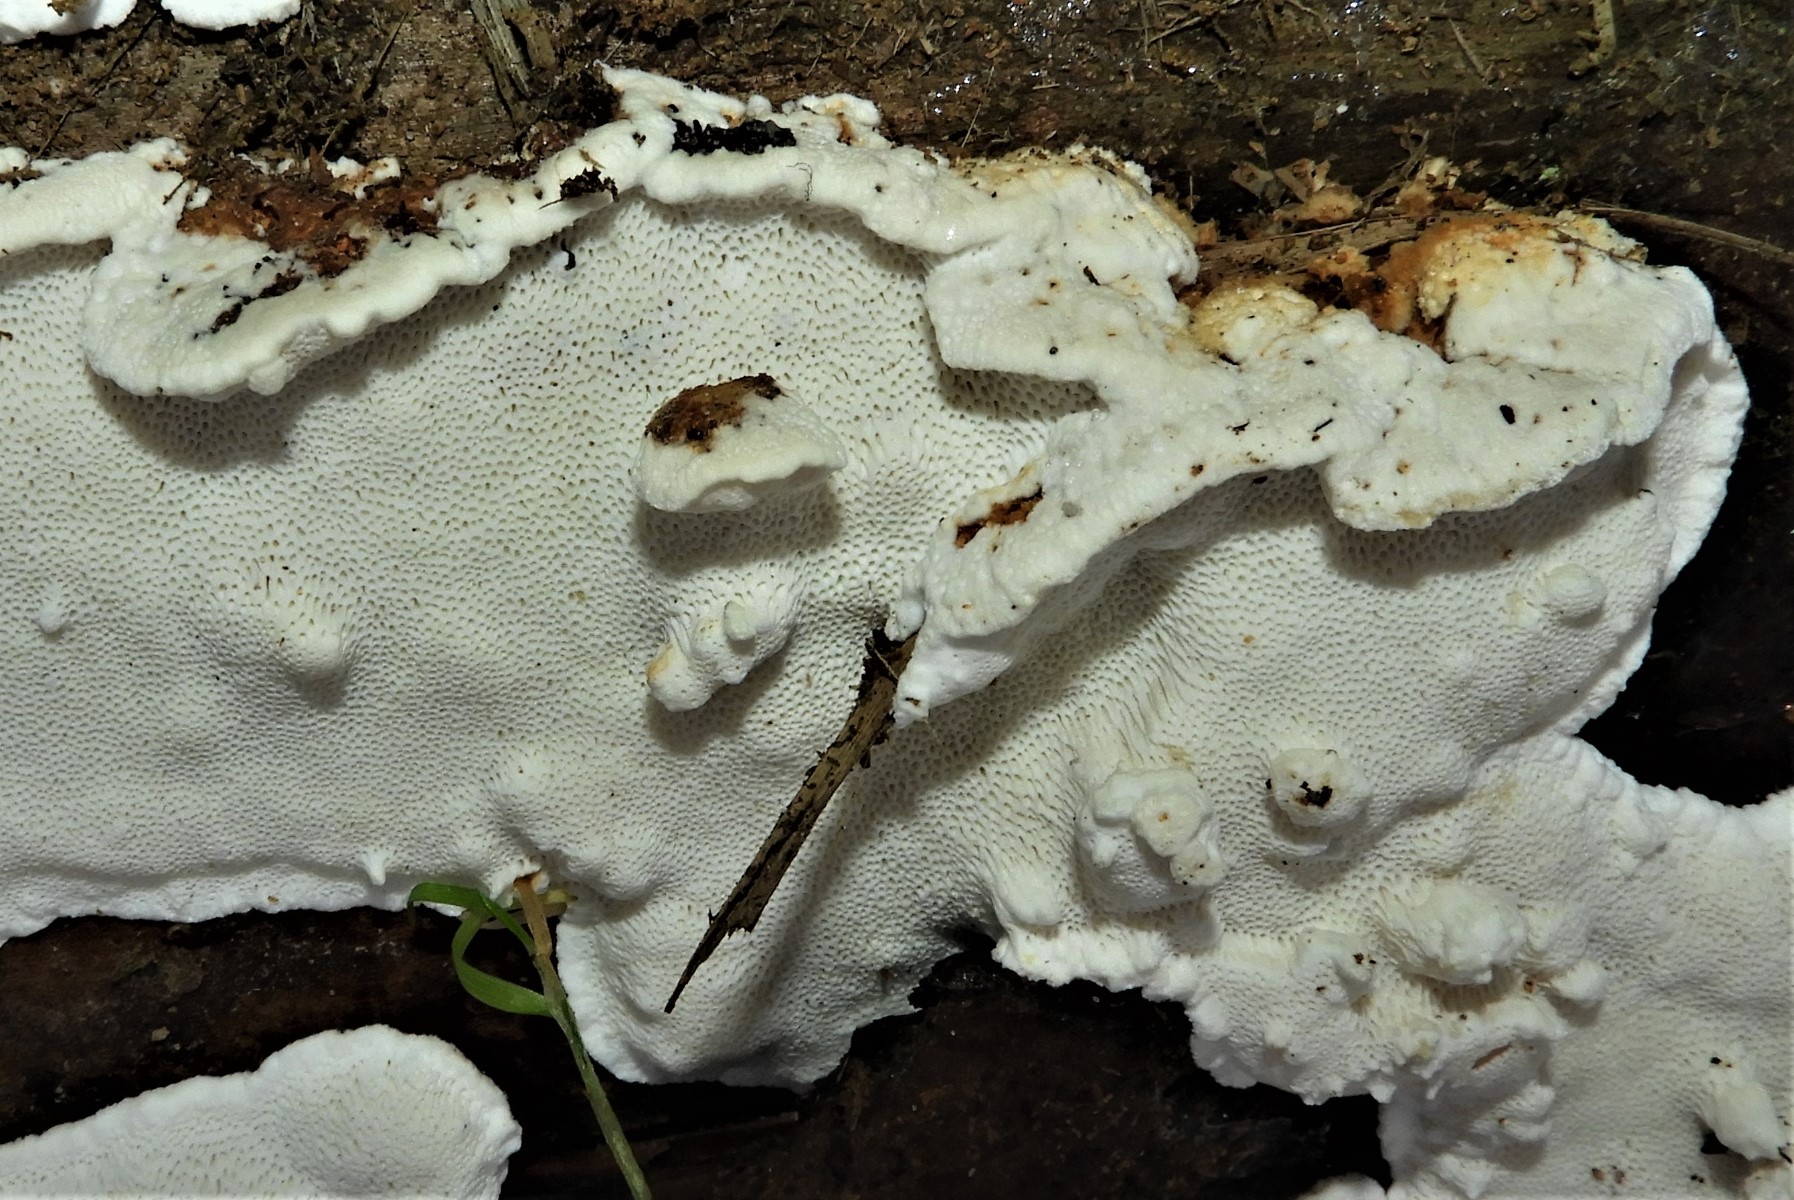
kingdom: Fungi
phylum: Basidiomycota
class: Agaricomycetes
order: Russulales
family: Bondarzewiaceae
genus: Heterobasidion
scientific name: Heterobasidion annosum
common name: almindelig rodfordærver
